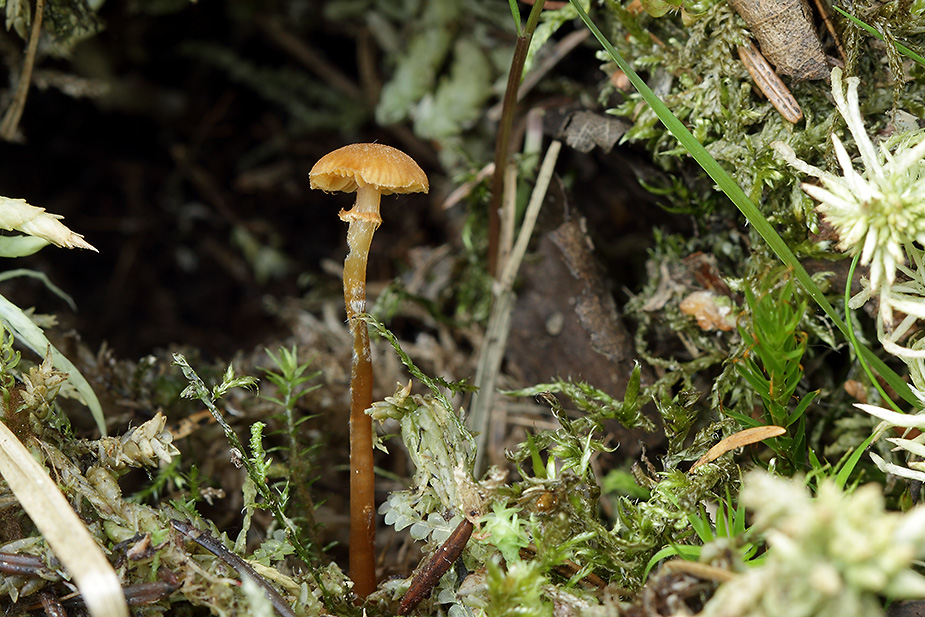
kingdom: Fungi
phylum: Basidiomycota
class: Agaricomycetes
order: Agaricales
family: Hymenogastraceae
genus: Galerina
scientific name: Galerina jaapii
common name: hvidbæltet hjelmhat
